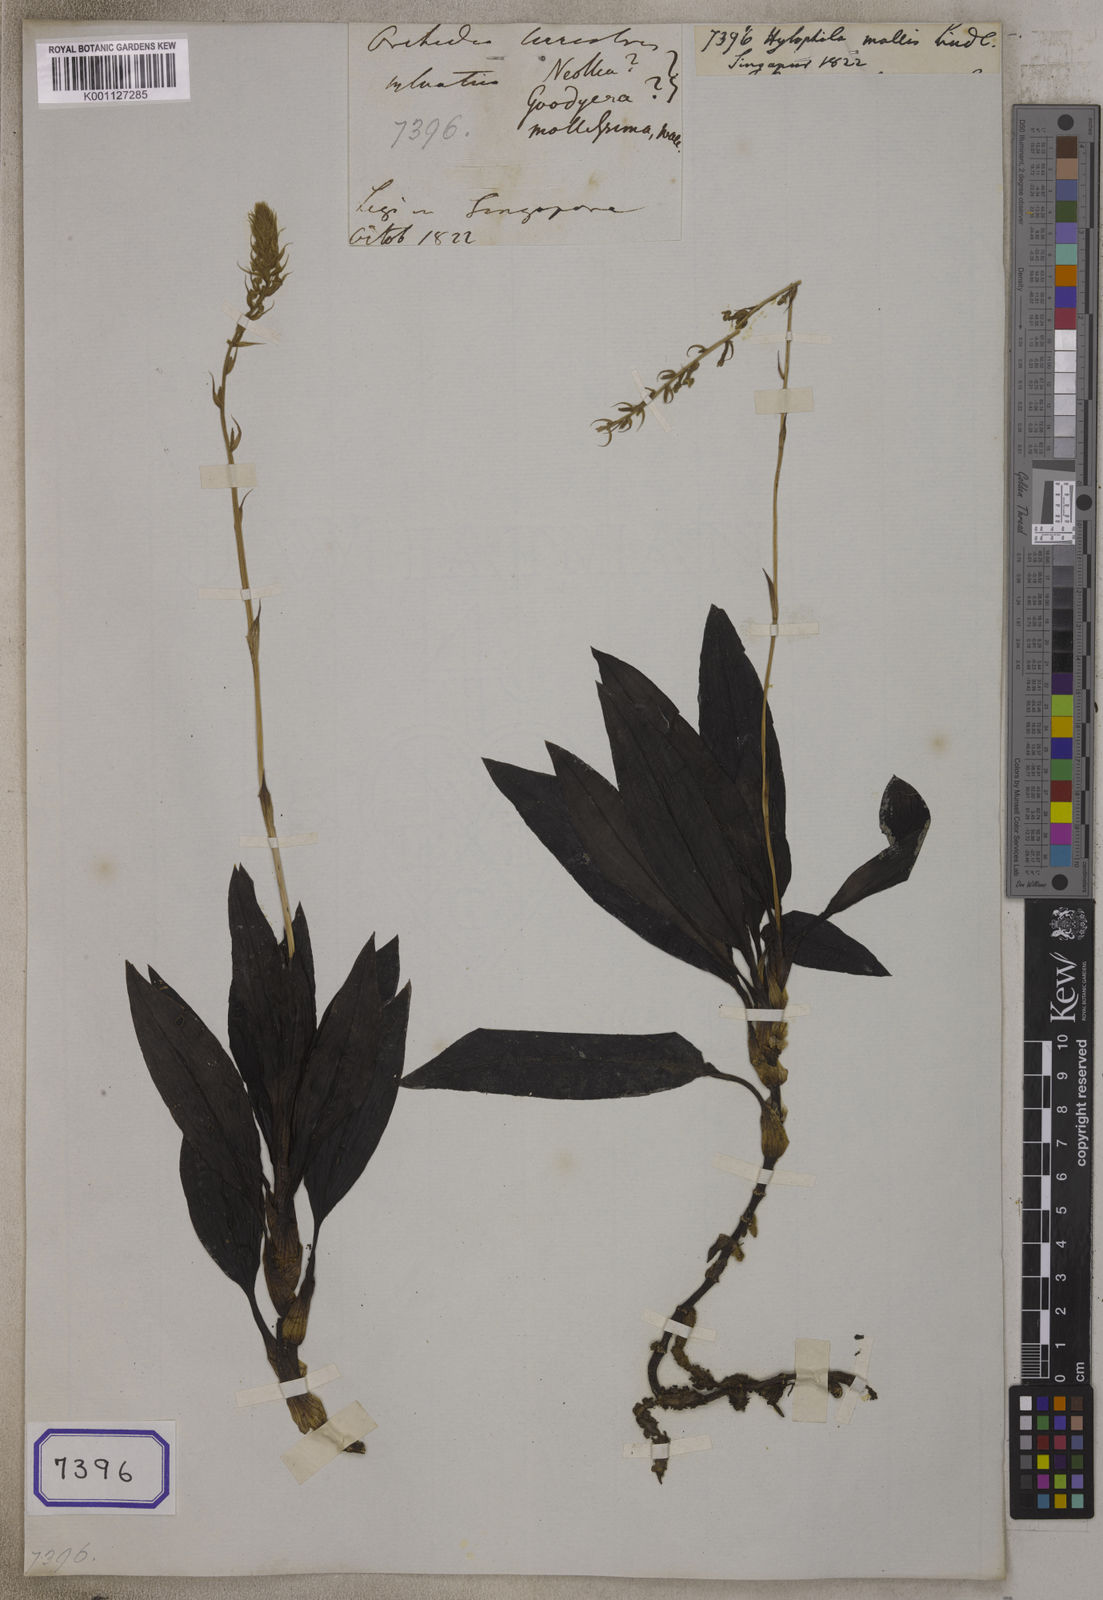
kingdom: Plantae
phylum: Tracheophyta
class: Liliopsida
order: Asparagales
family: Orchidaceae
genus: Hylophila
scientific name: Hylophila mollis
